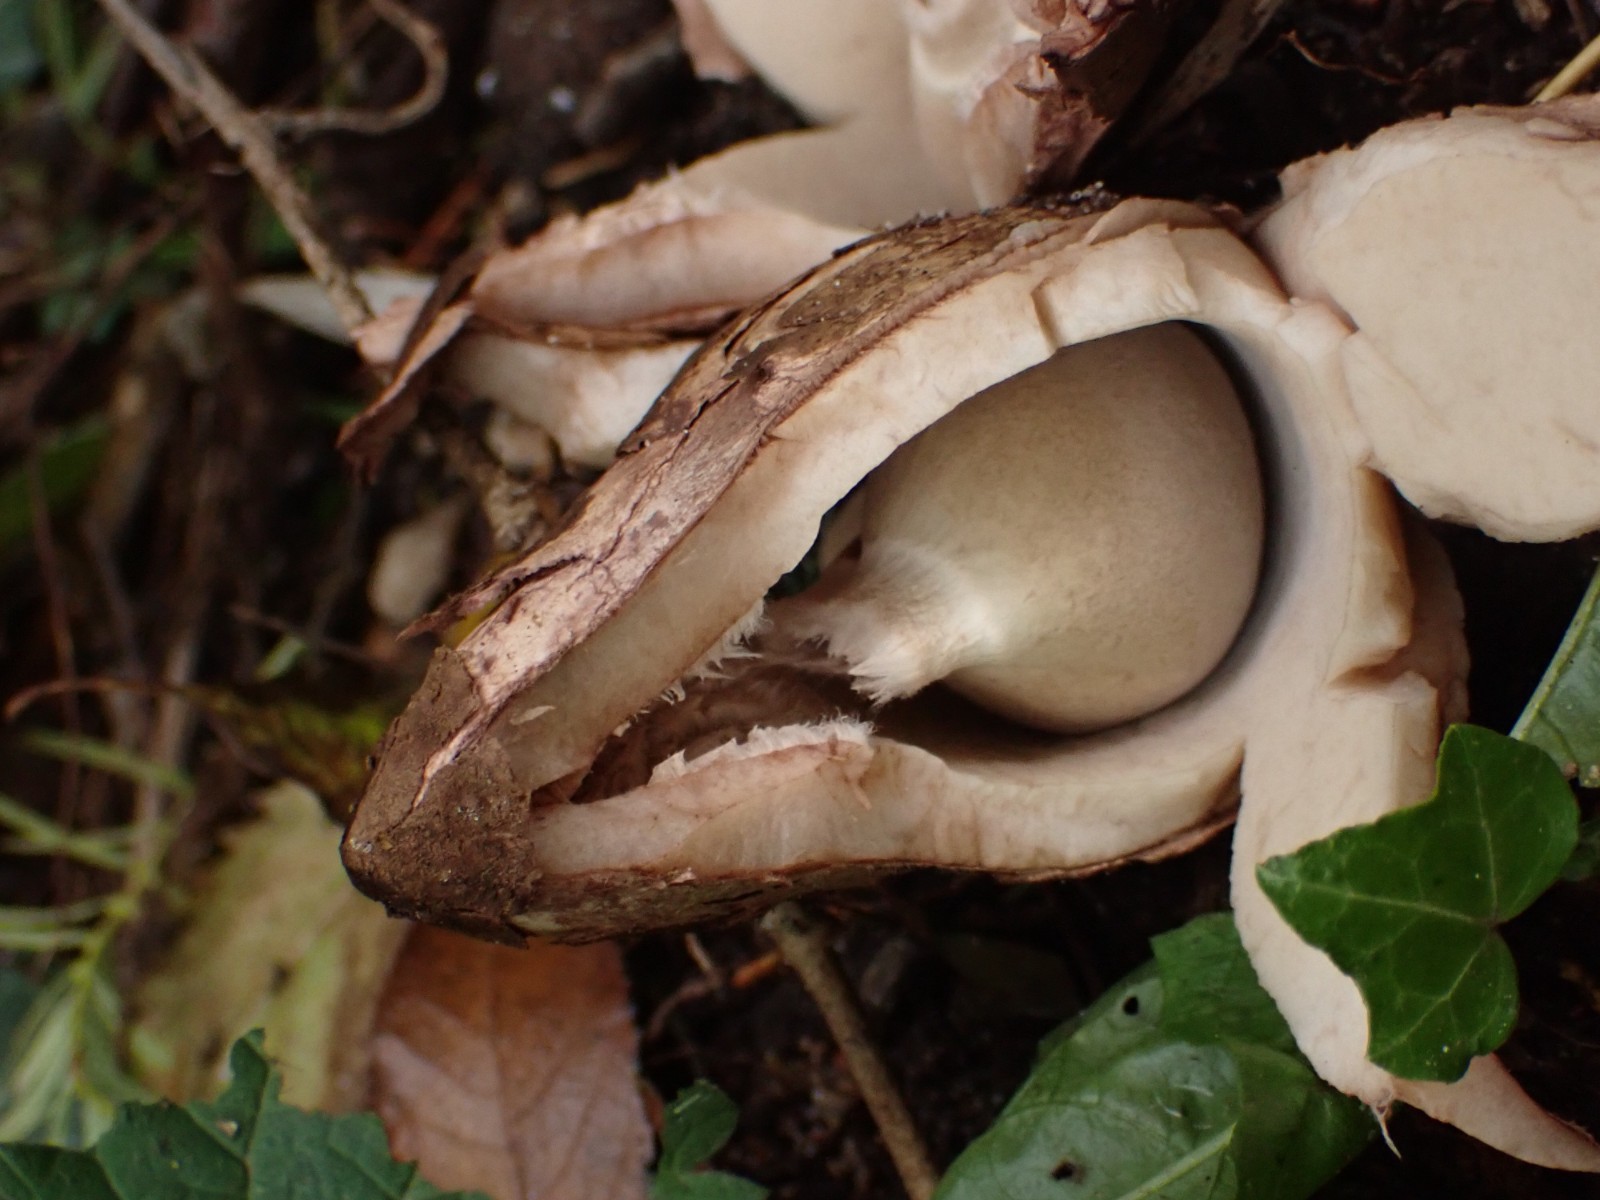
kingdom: Fungi
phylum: Basidiomycota
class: Agaricomycetes
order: Geastrales
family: Geastraceae
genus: Geastrum
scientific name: Geastrum michelianum
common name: kødet stjernebold
